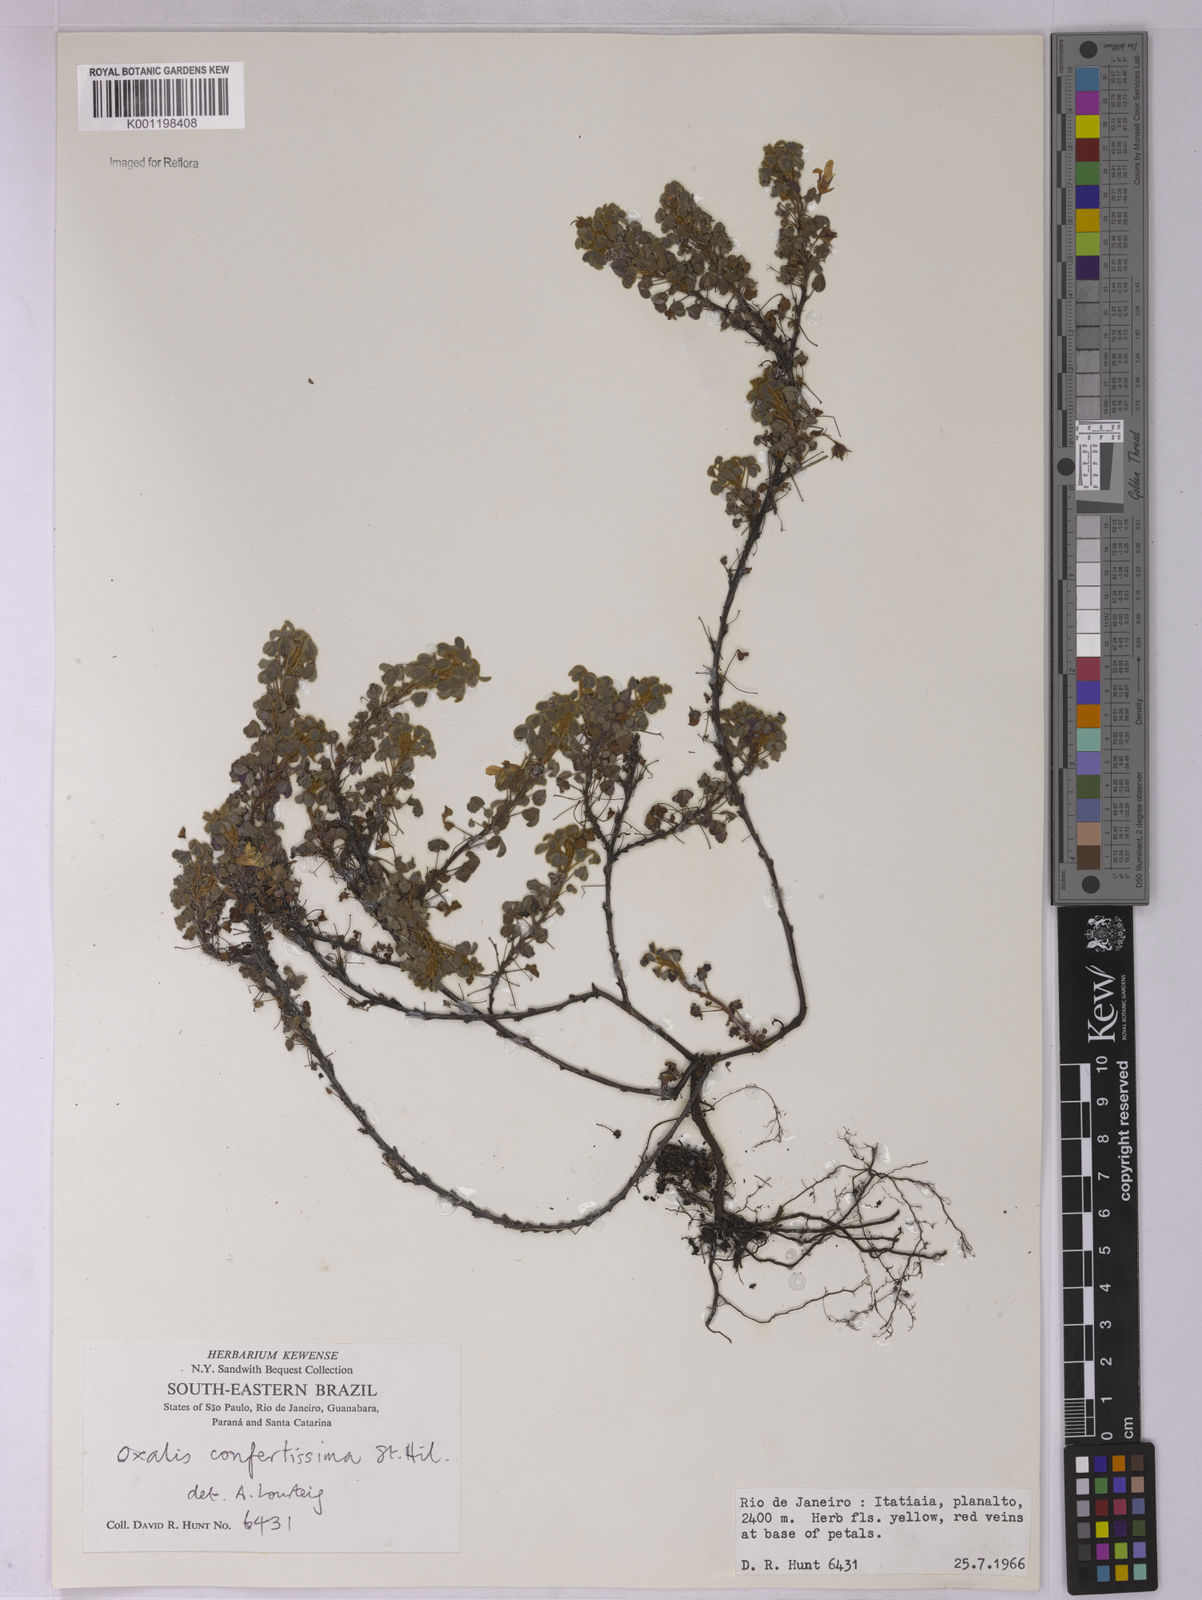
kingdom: Plantae
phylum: Tracheophyta
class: Magnoliopsida
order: Oxalidales
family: Oxalidaceae
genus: Oxalis
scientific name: Oxalis confertissima
